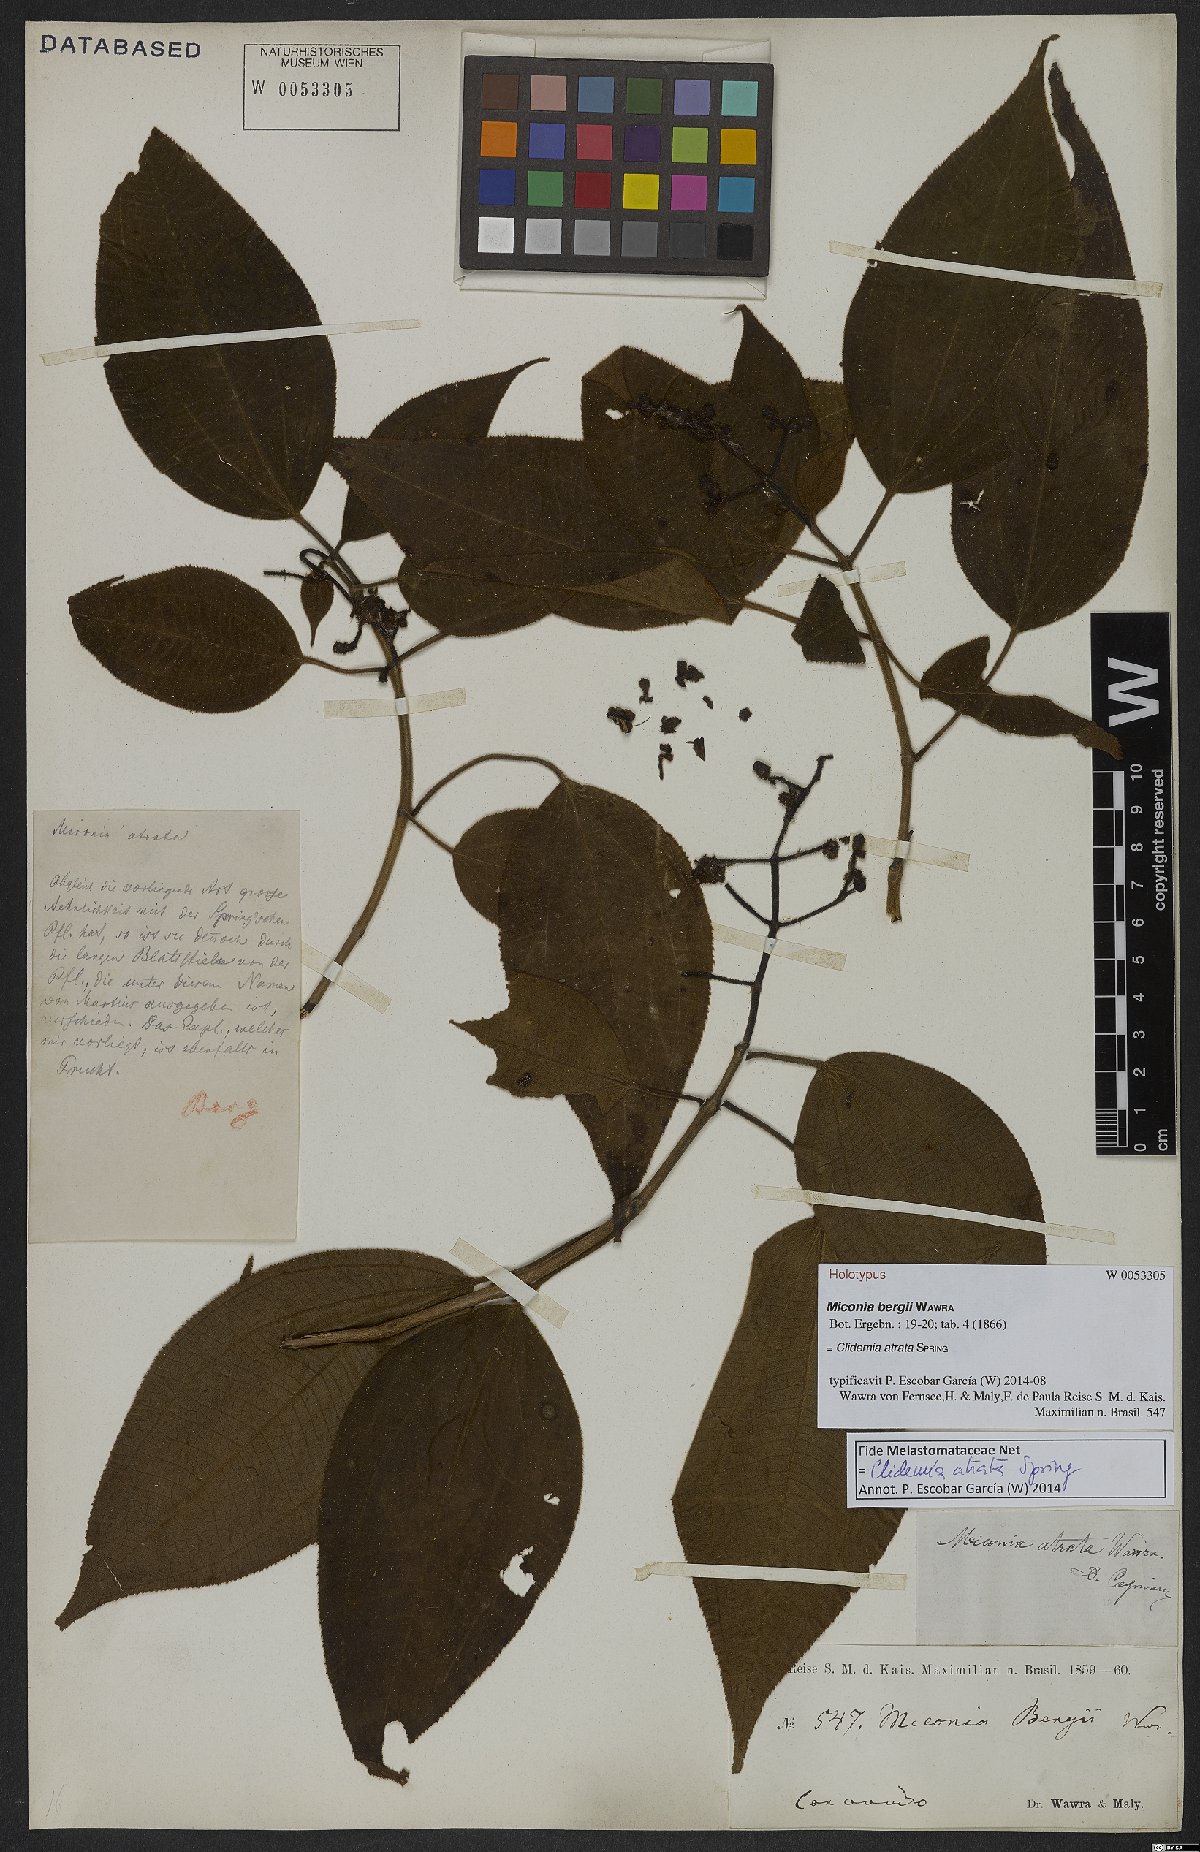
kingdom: Plantae
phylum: Tracheophyta
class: Magnoliopsida
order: Myrtales
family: Melastomataceae
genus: Miconia
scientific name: Miconia atrata
